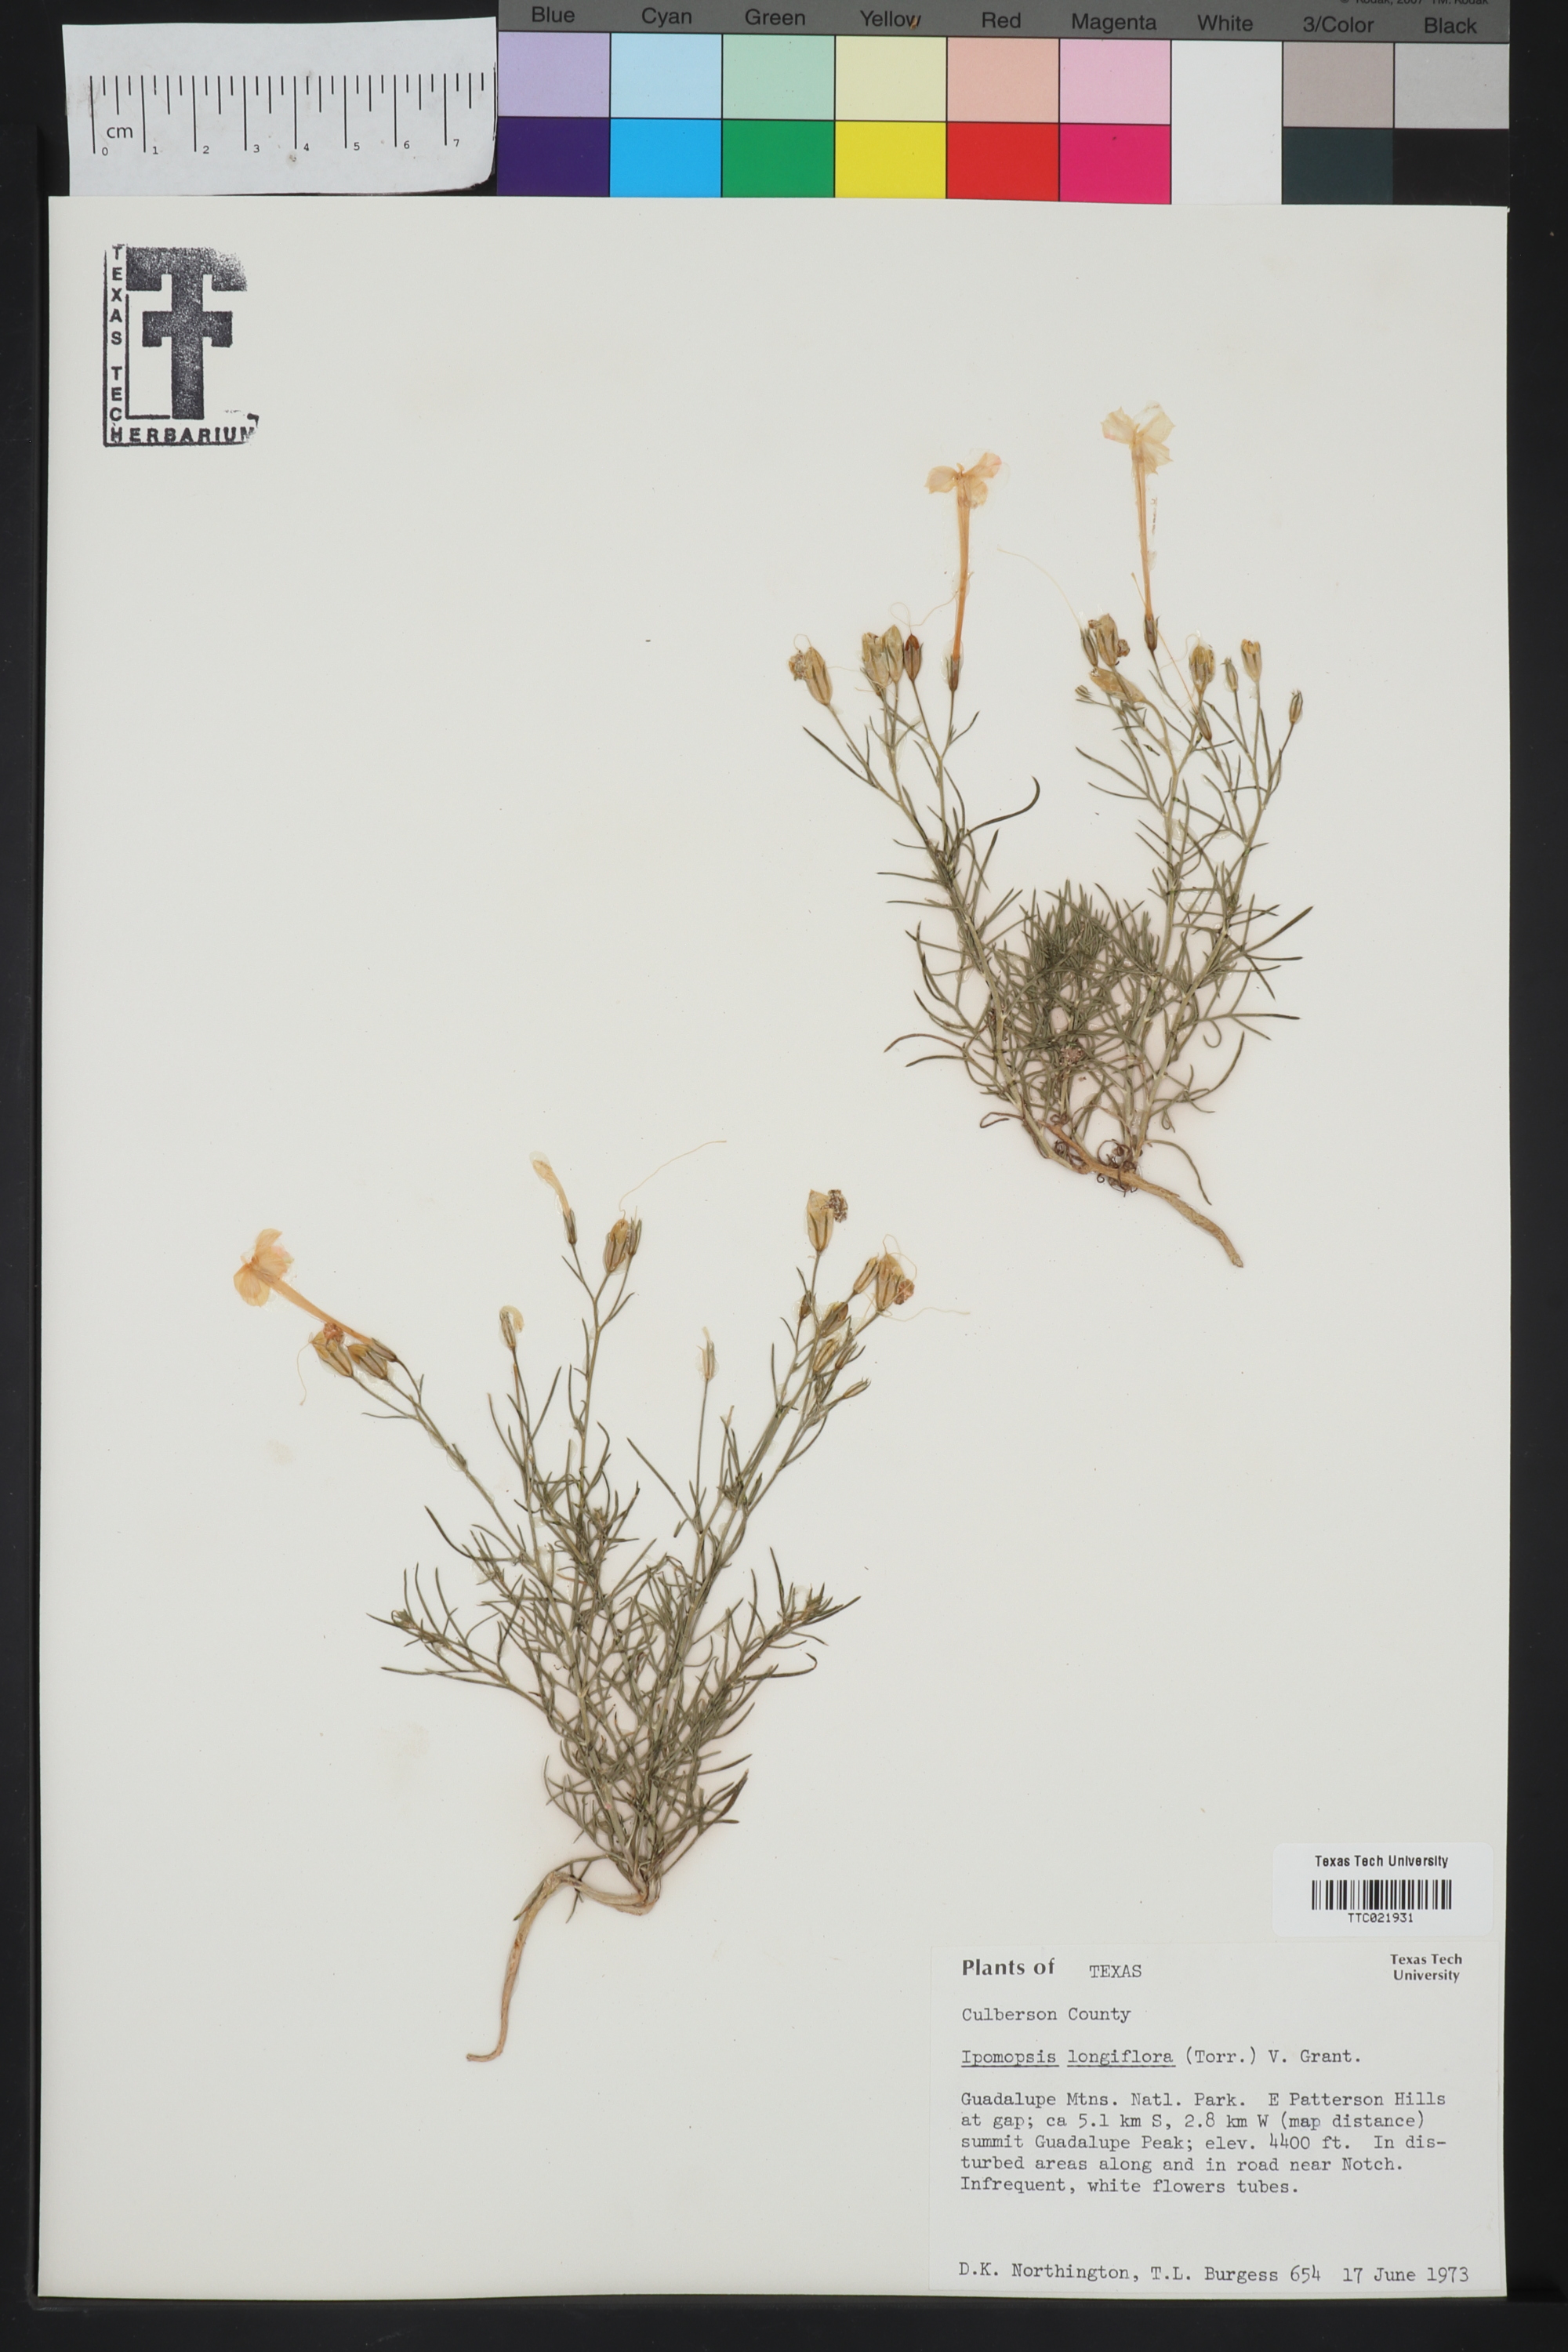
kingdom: Plantae
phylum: Tracheophyta
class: Magnoliopsida
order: Ericales
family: Polemoniaceae
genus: Ipomopsis
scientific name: Ipomopsis longiflora
